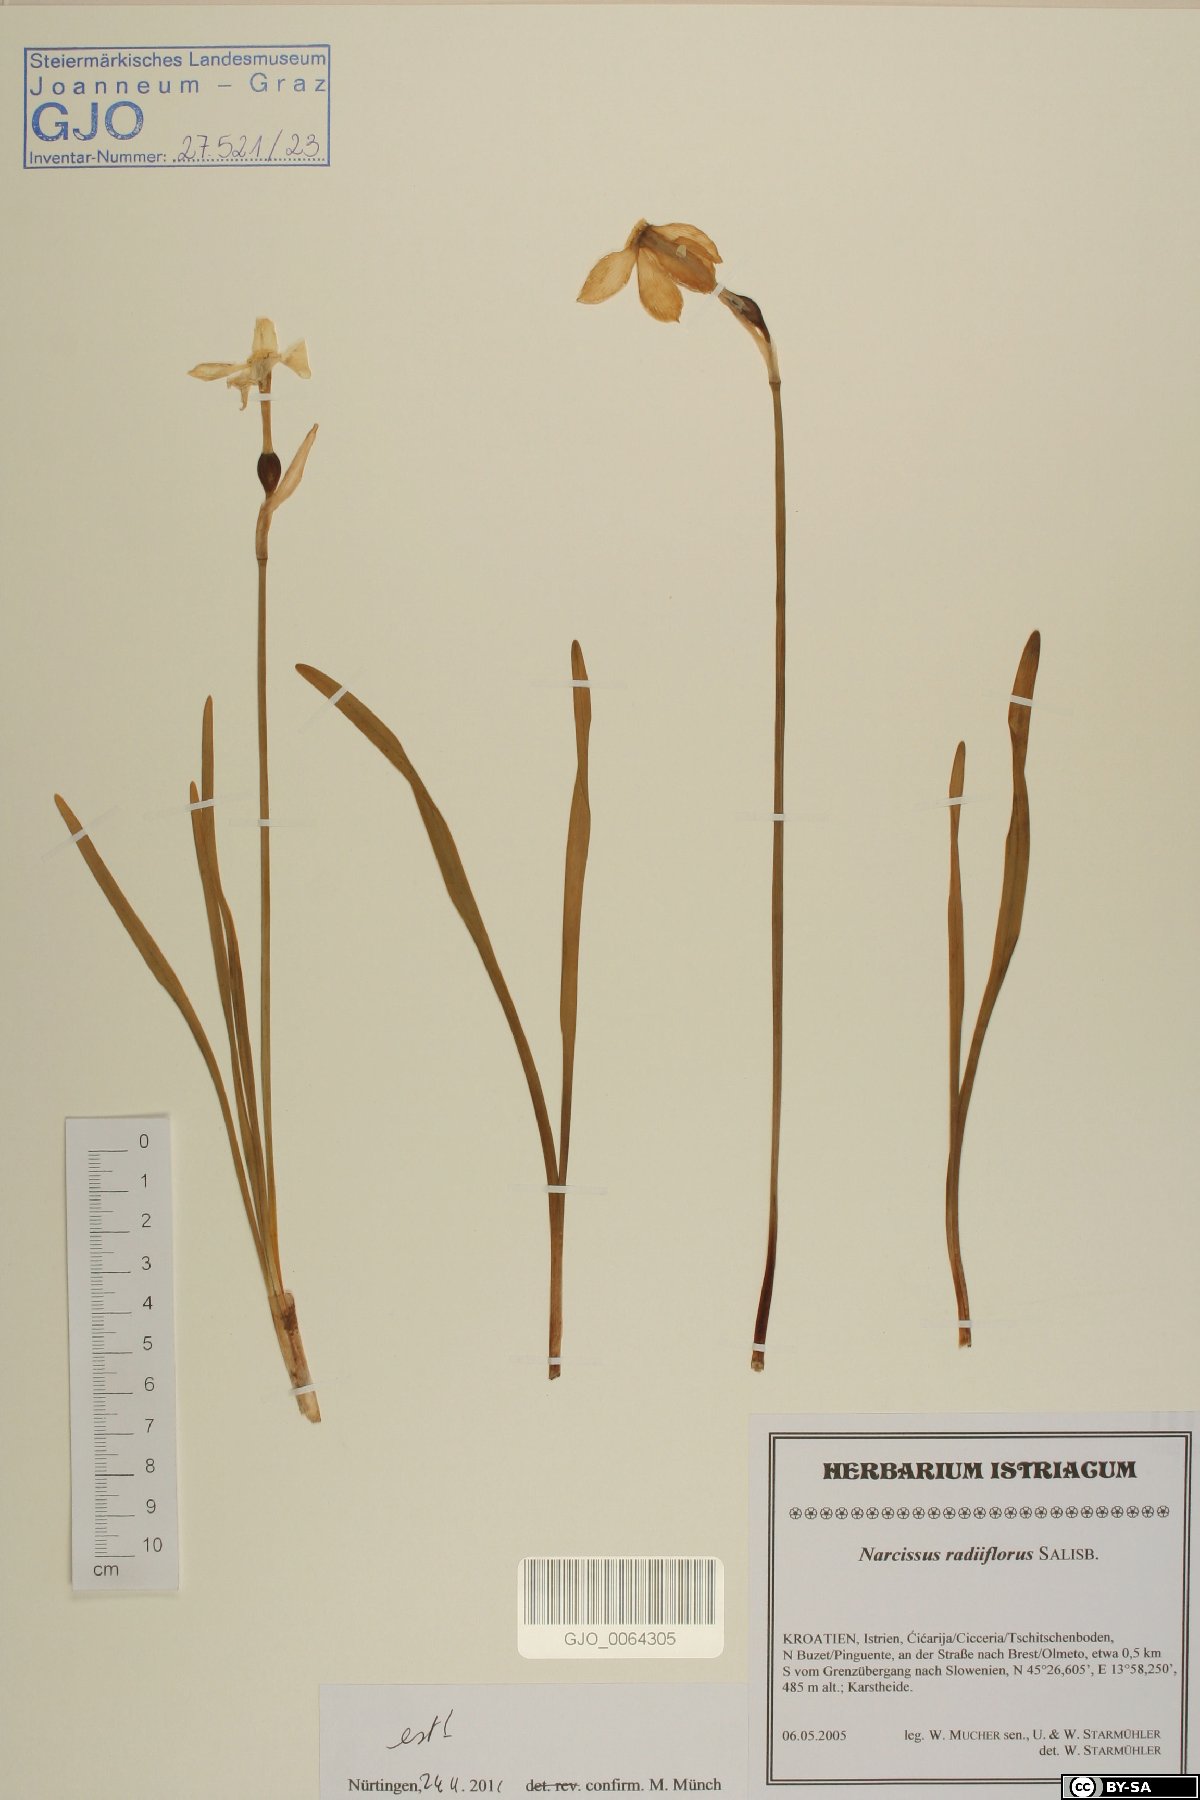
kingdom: Plantae
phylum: Tracheophyta
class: Liliopsida
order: Asparagales
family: Amaryllidaceae
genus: Narcissus
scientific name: Narcissus poeticus
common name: Pheasant's-eye daffodil
